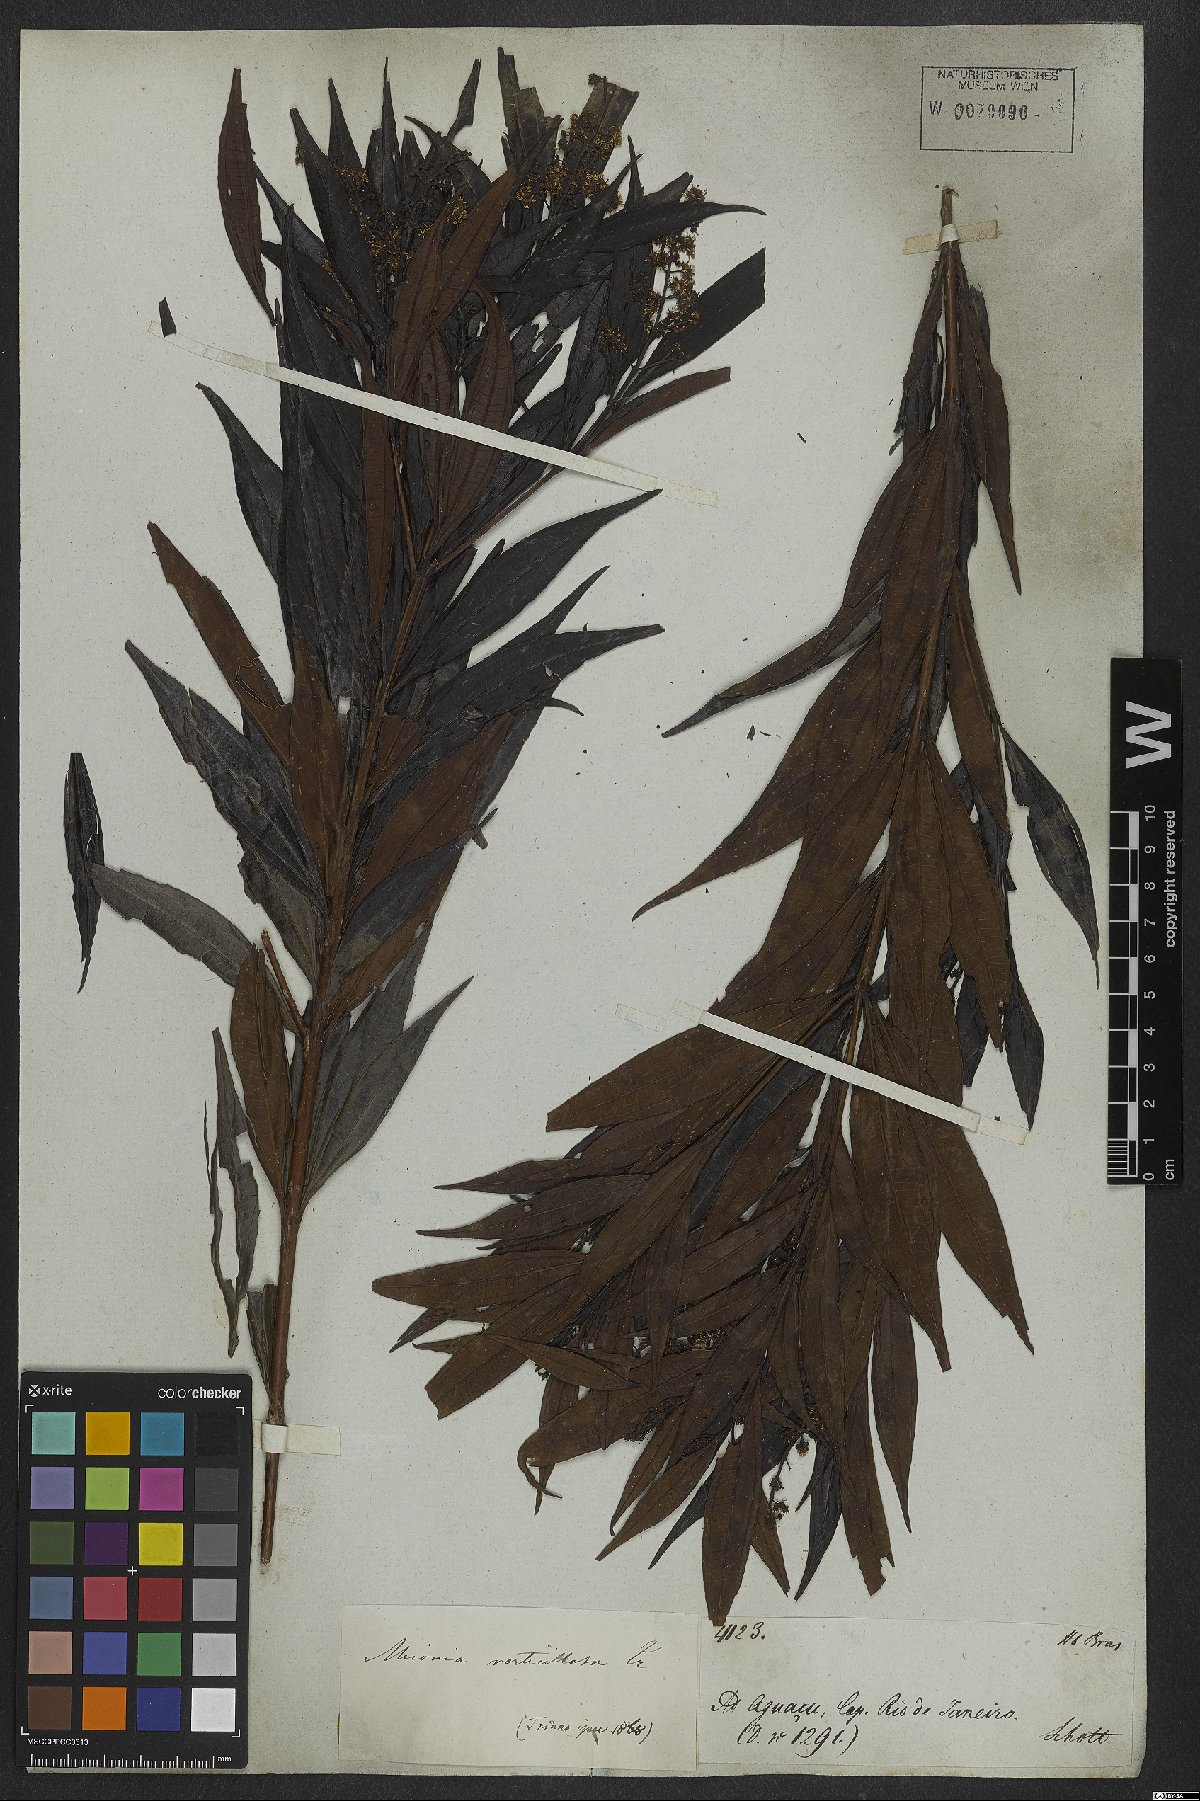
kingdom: Plantae
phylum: Tracheophyta
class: Magnoliopsida
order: Myrtales
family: Melastomataceae
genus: Miconia
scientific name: Miconia elaeodendron
